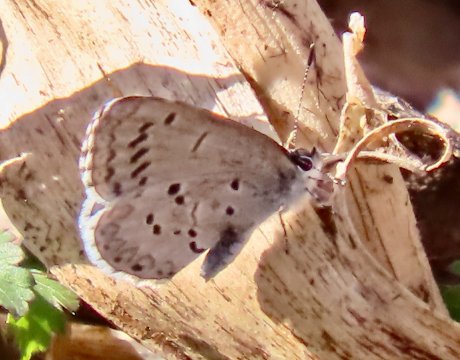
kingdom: Animalia
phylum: Arthropoda
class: Insecta
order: Lepidoptera
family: Lycaenidae
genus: Celastrina
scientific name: Celastrina ladon
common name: Spring Azure
